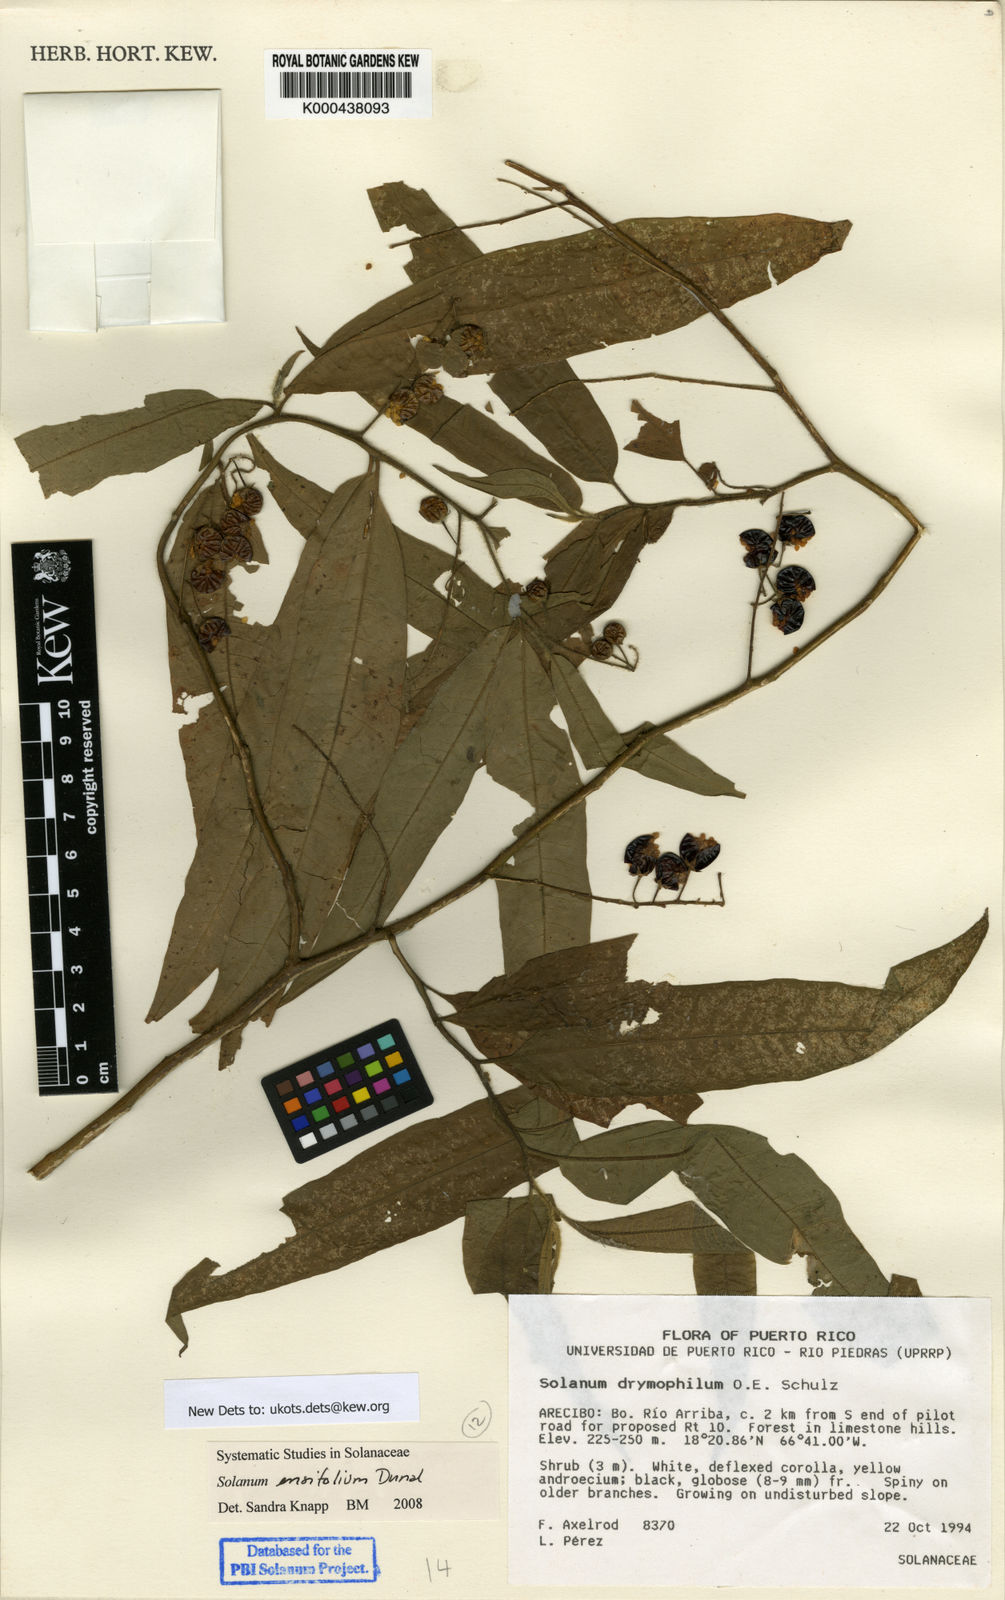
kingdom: Plantae
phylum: Tracheophyta
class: Magnoliopsida
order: Solanales
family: Solanaceae
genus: Solanum
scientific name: Solanum ensifolium
